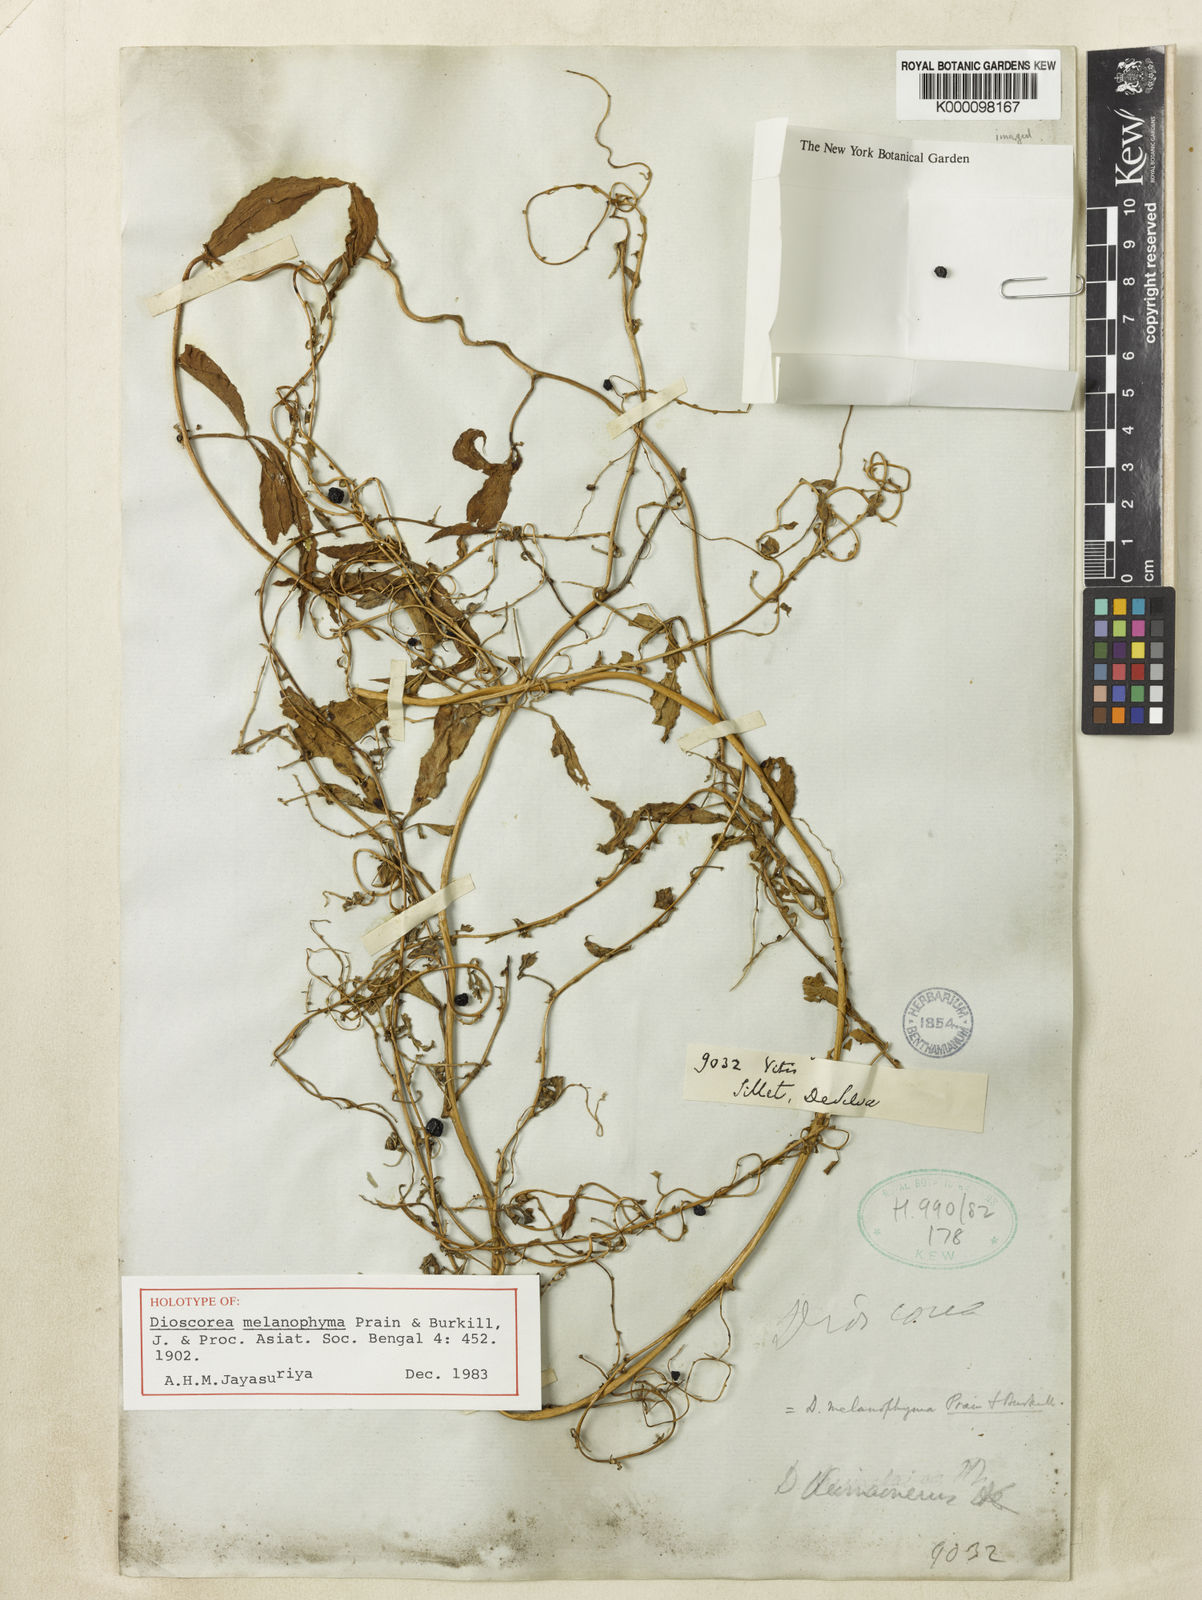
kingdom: Plantae
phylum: Tracheophyta
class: Liliopsida
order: Dioscoreales
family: Dioscoreaceae
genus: Dioscorea
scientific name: Dioscorea melanophyma
